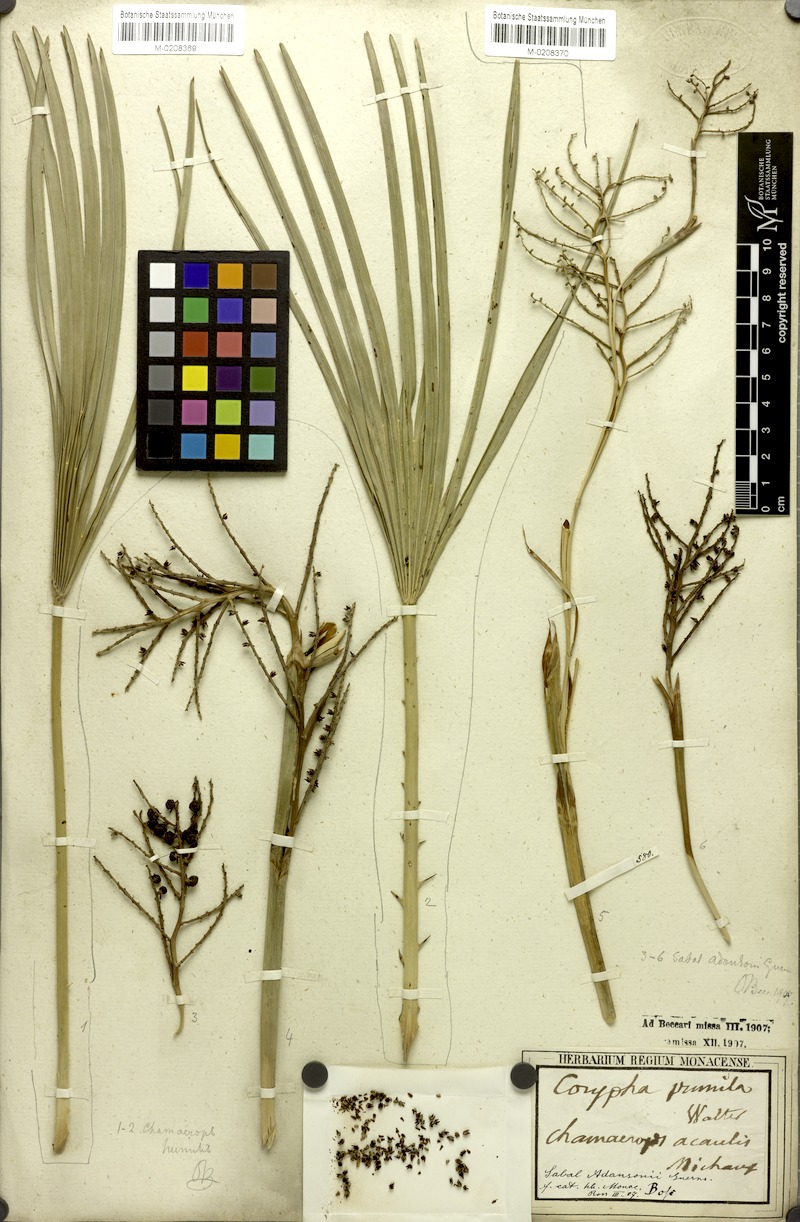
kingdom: Plantae
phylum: Tracheophyta
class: Liliopsida
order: Arecales
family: Arecaceae
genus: Sabal
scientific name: Sabal minor
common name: Dwarf palmetto
